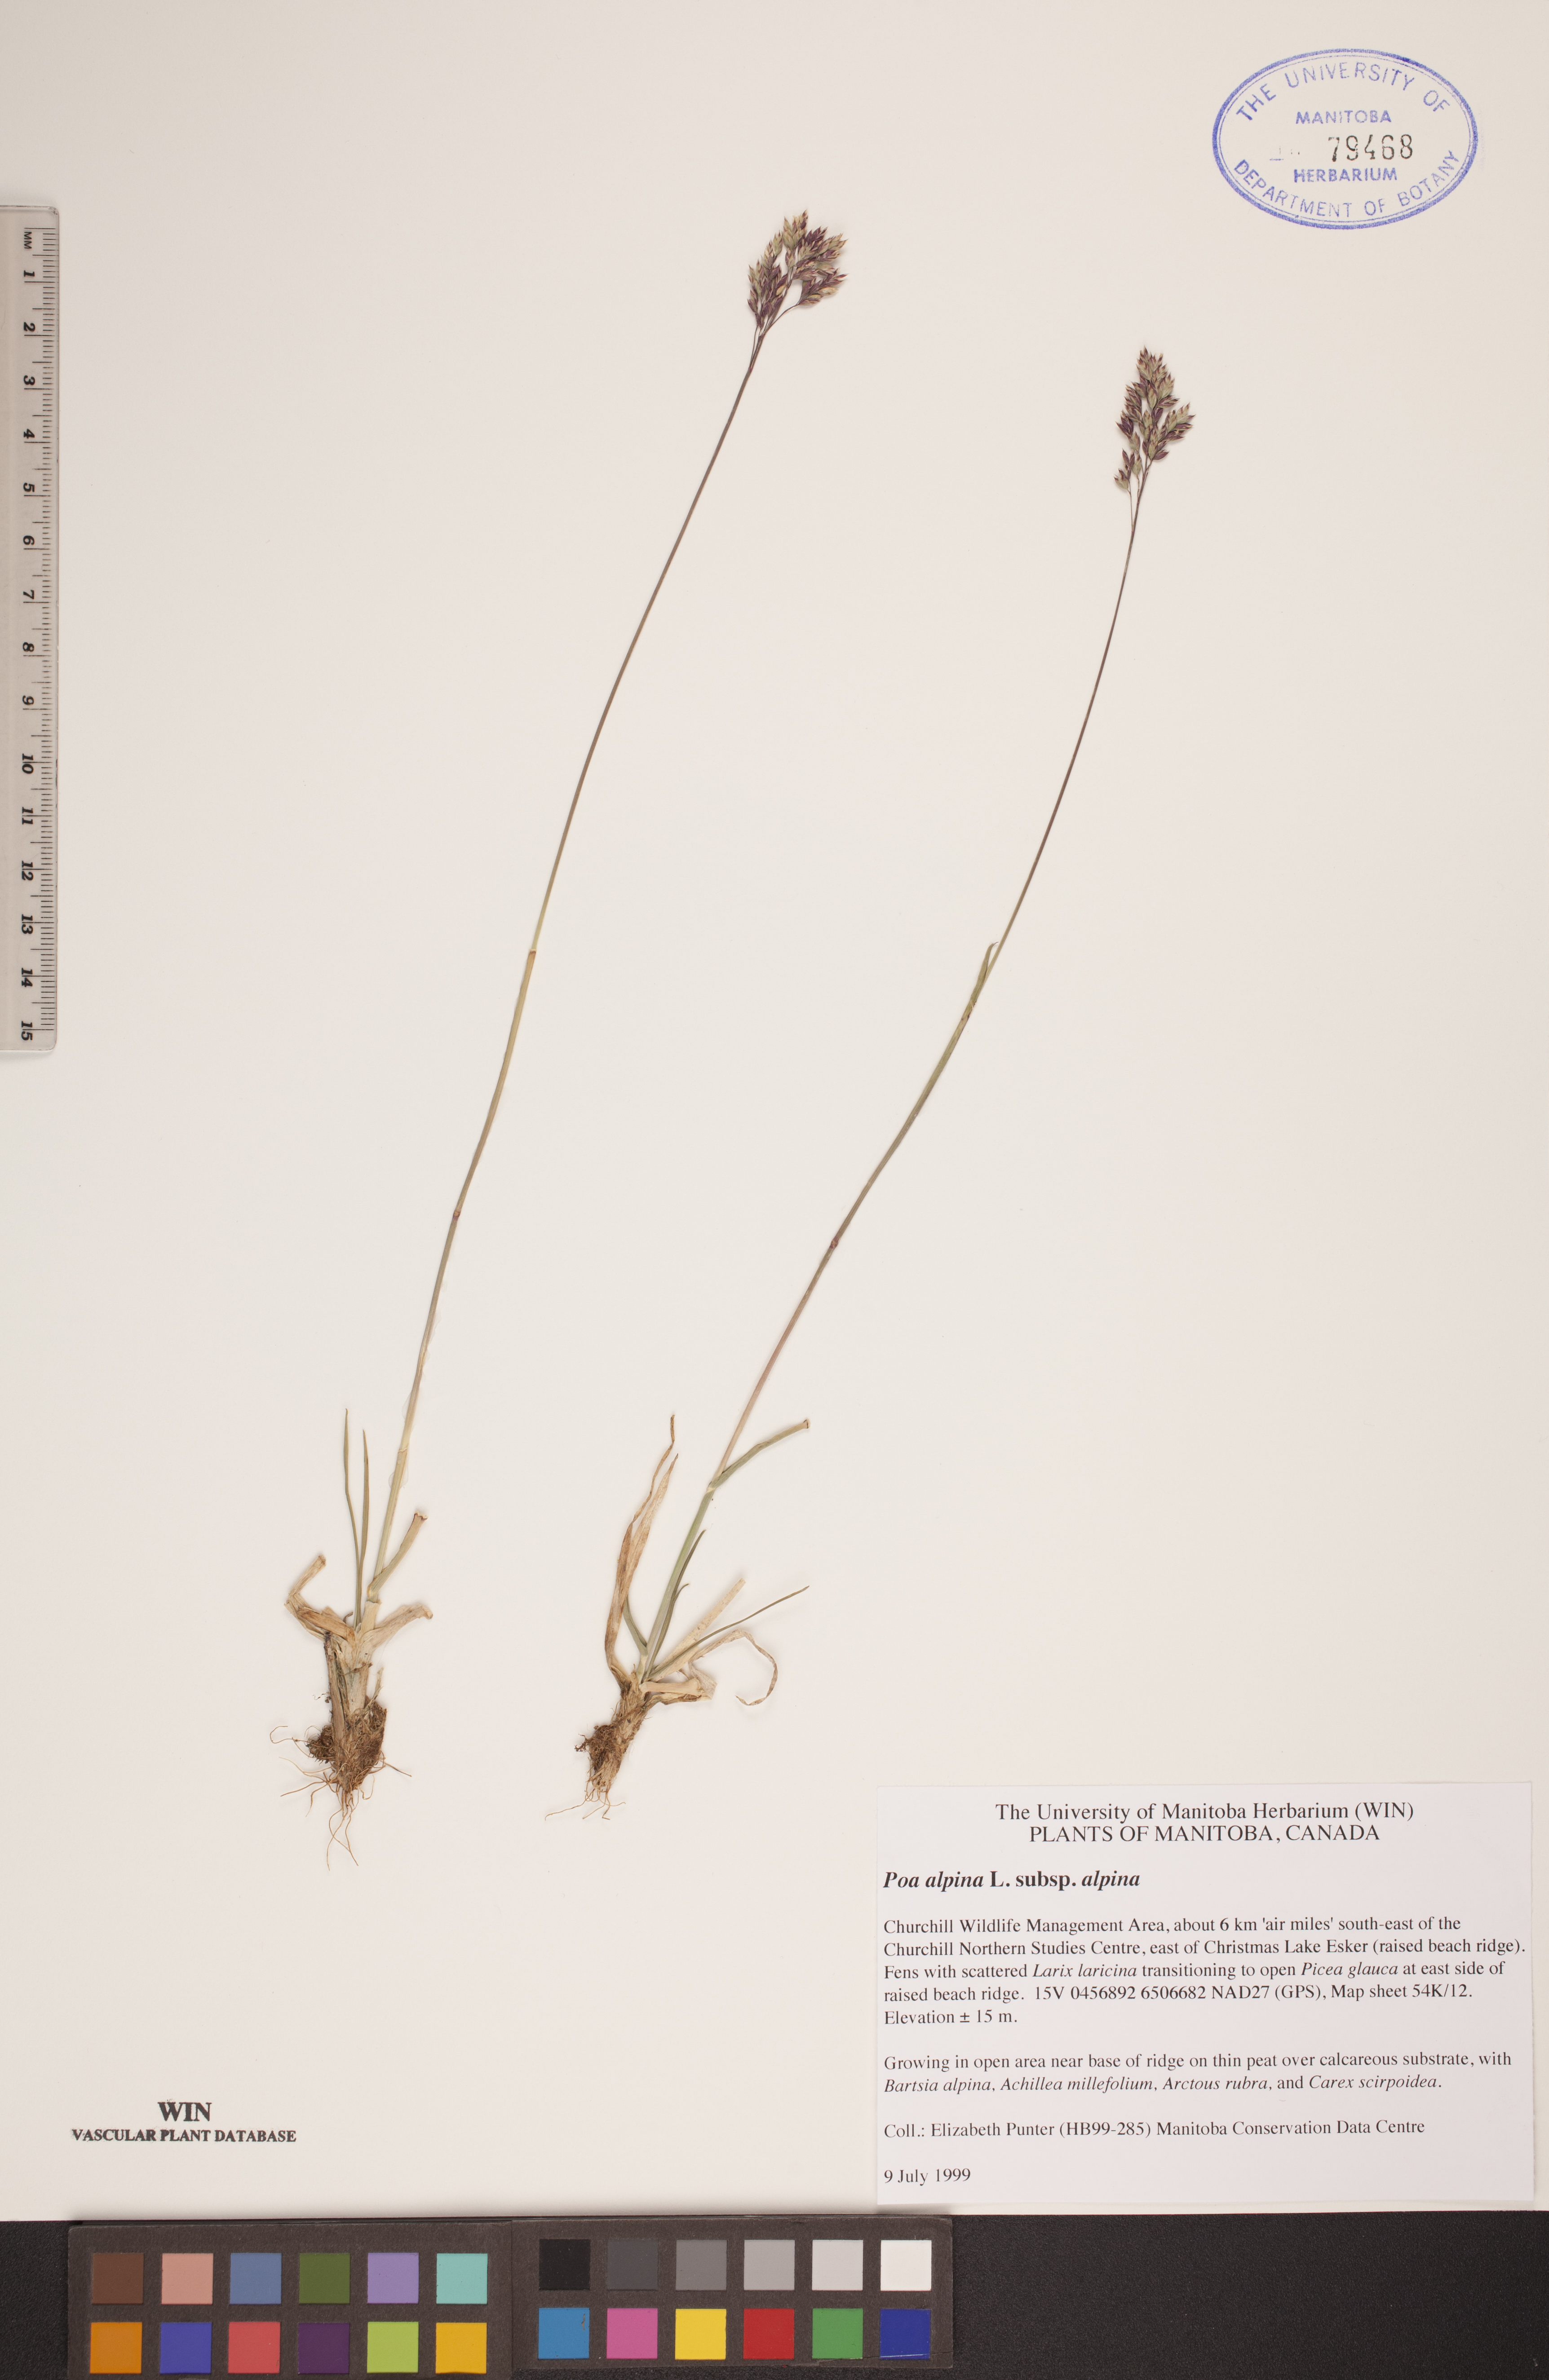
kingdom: Plantae
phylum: Tracheophyta
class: Liliopsida
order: Poales
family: Poaceae
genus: Poa
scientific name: Poa alpina
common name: Alpine bluegrass
